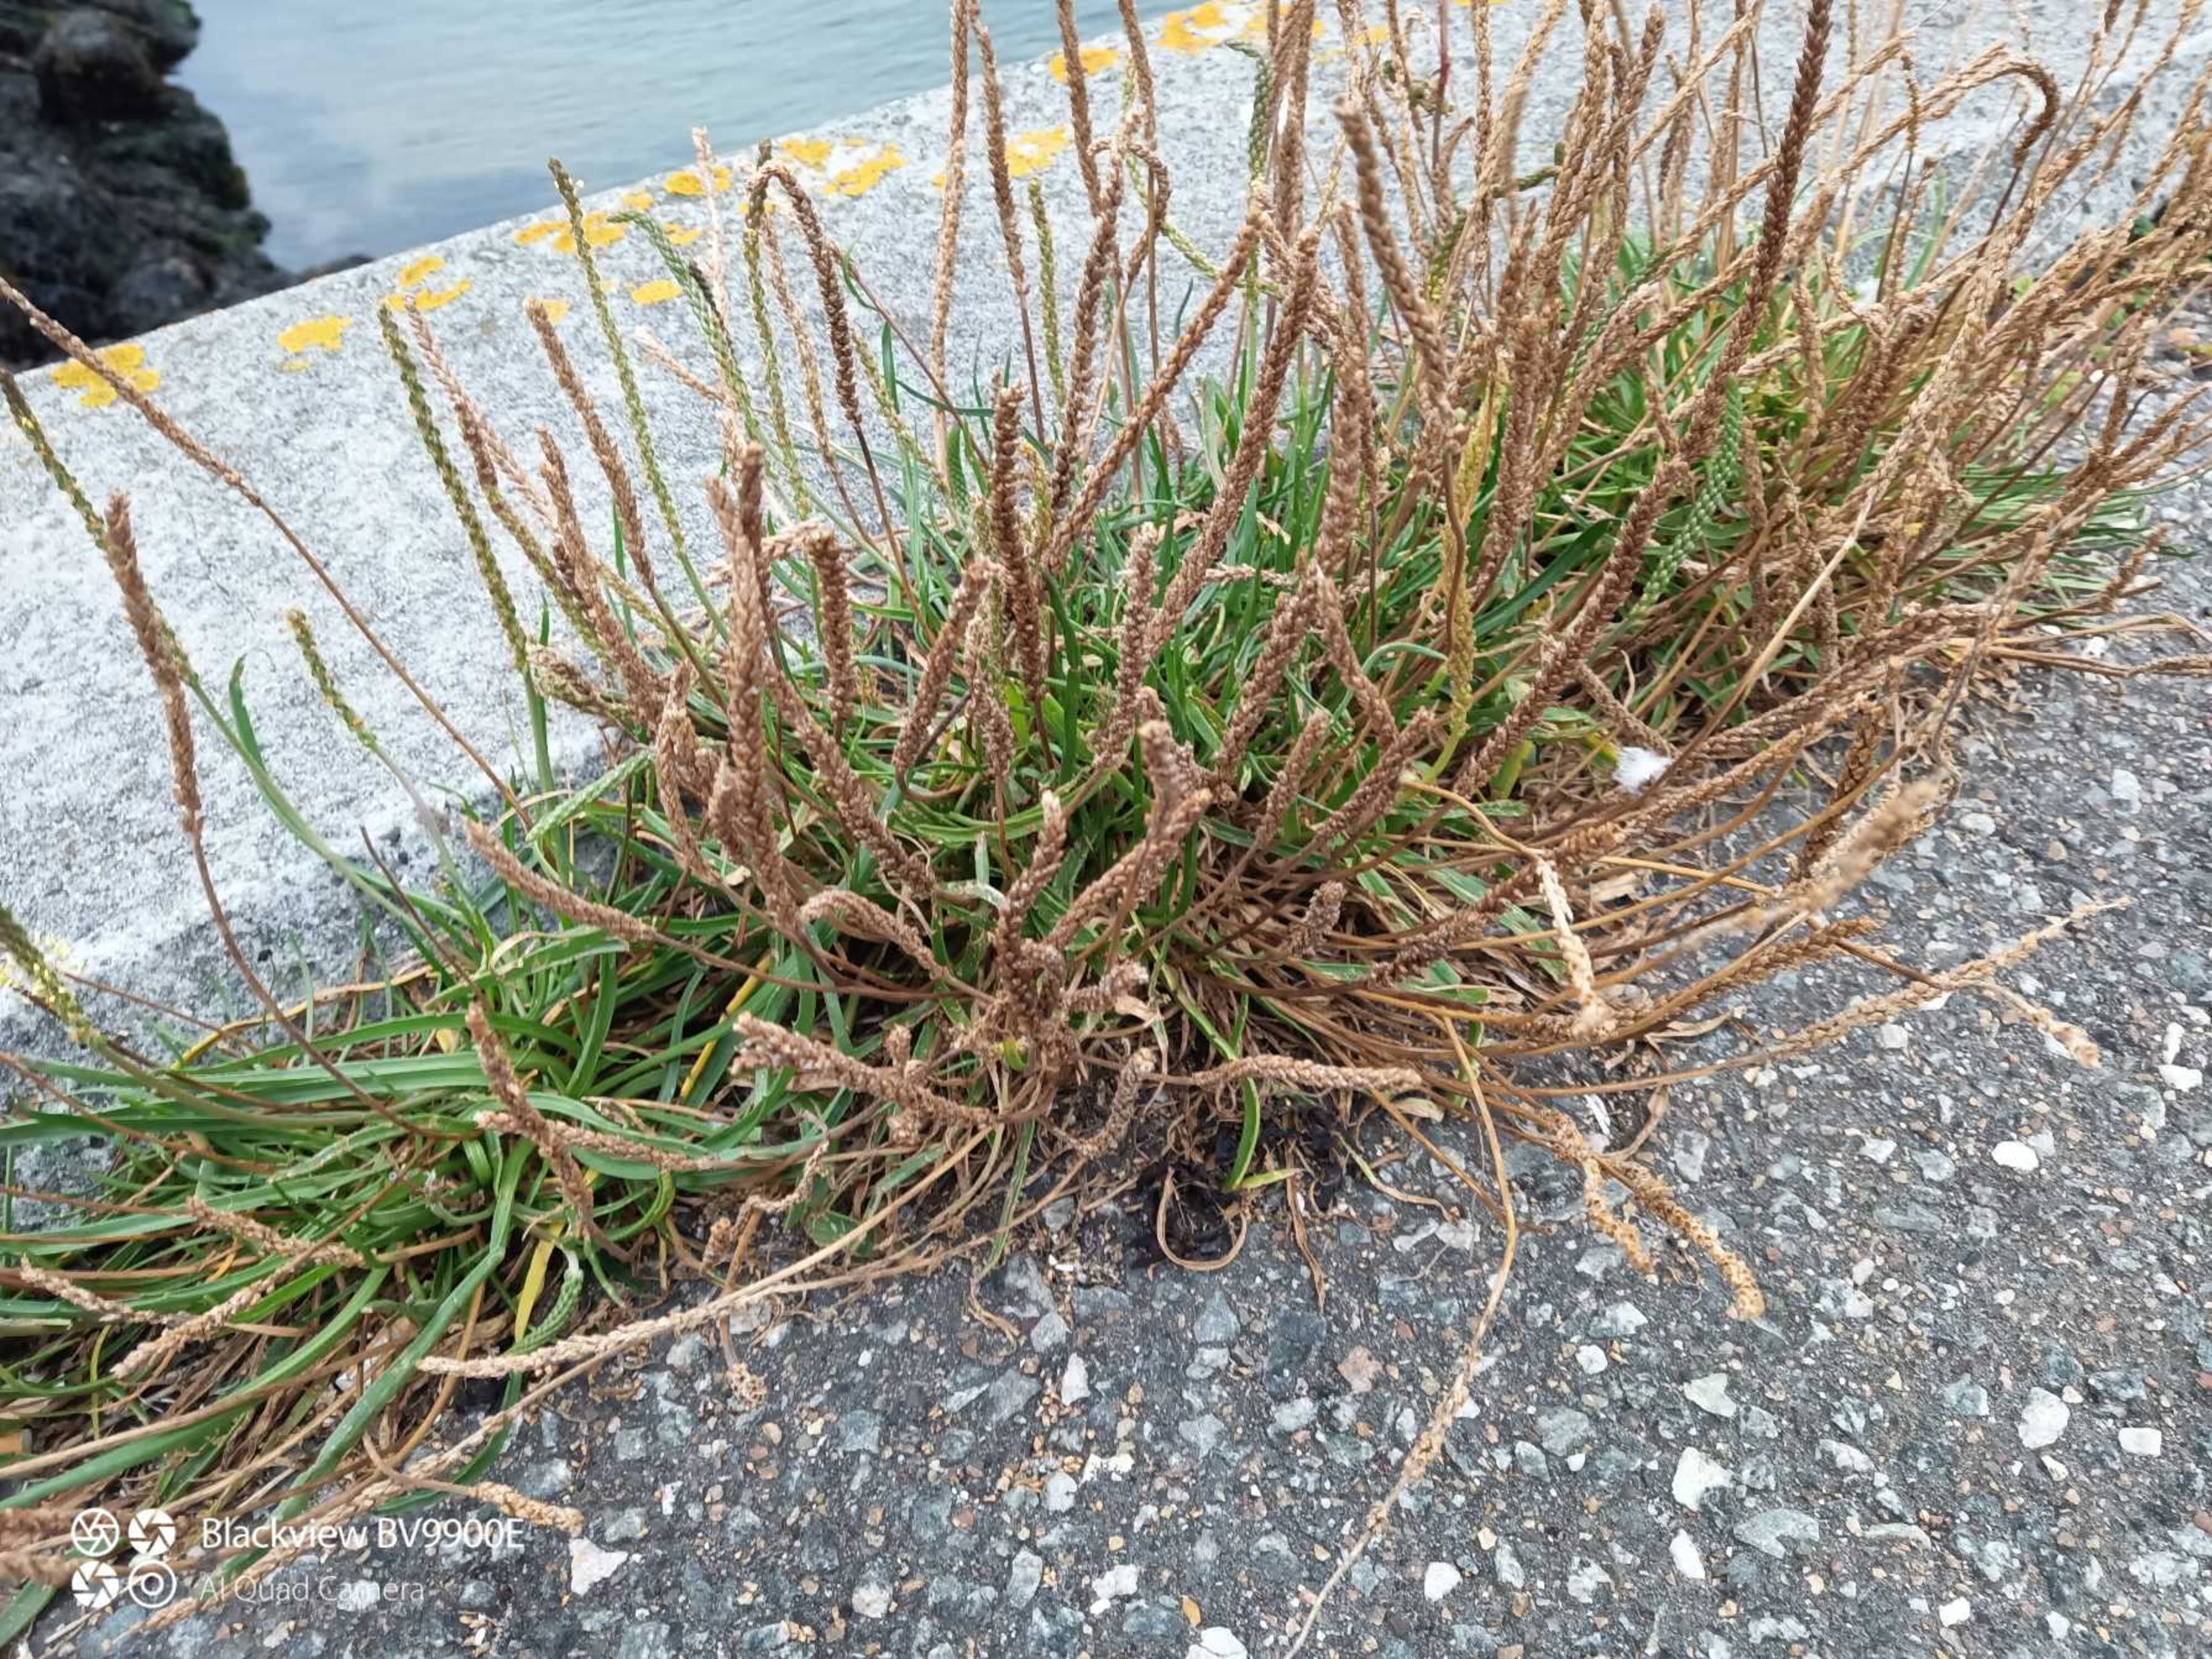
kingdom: Plantae
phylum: Tracheophyta
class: Magnoliopsida
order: Lamiales
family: Plantaginaceae
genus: Plantago
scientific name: Plantago maritima
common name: Strand-vejbred
